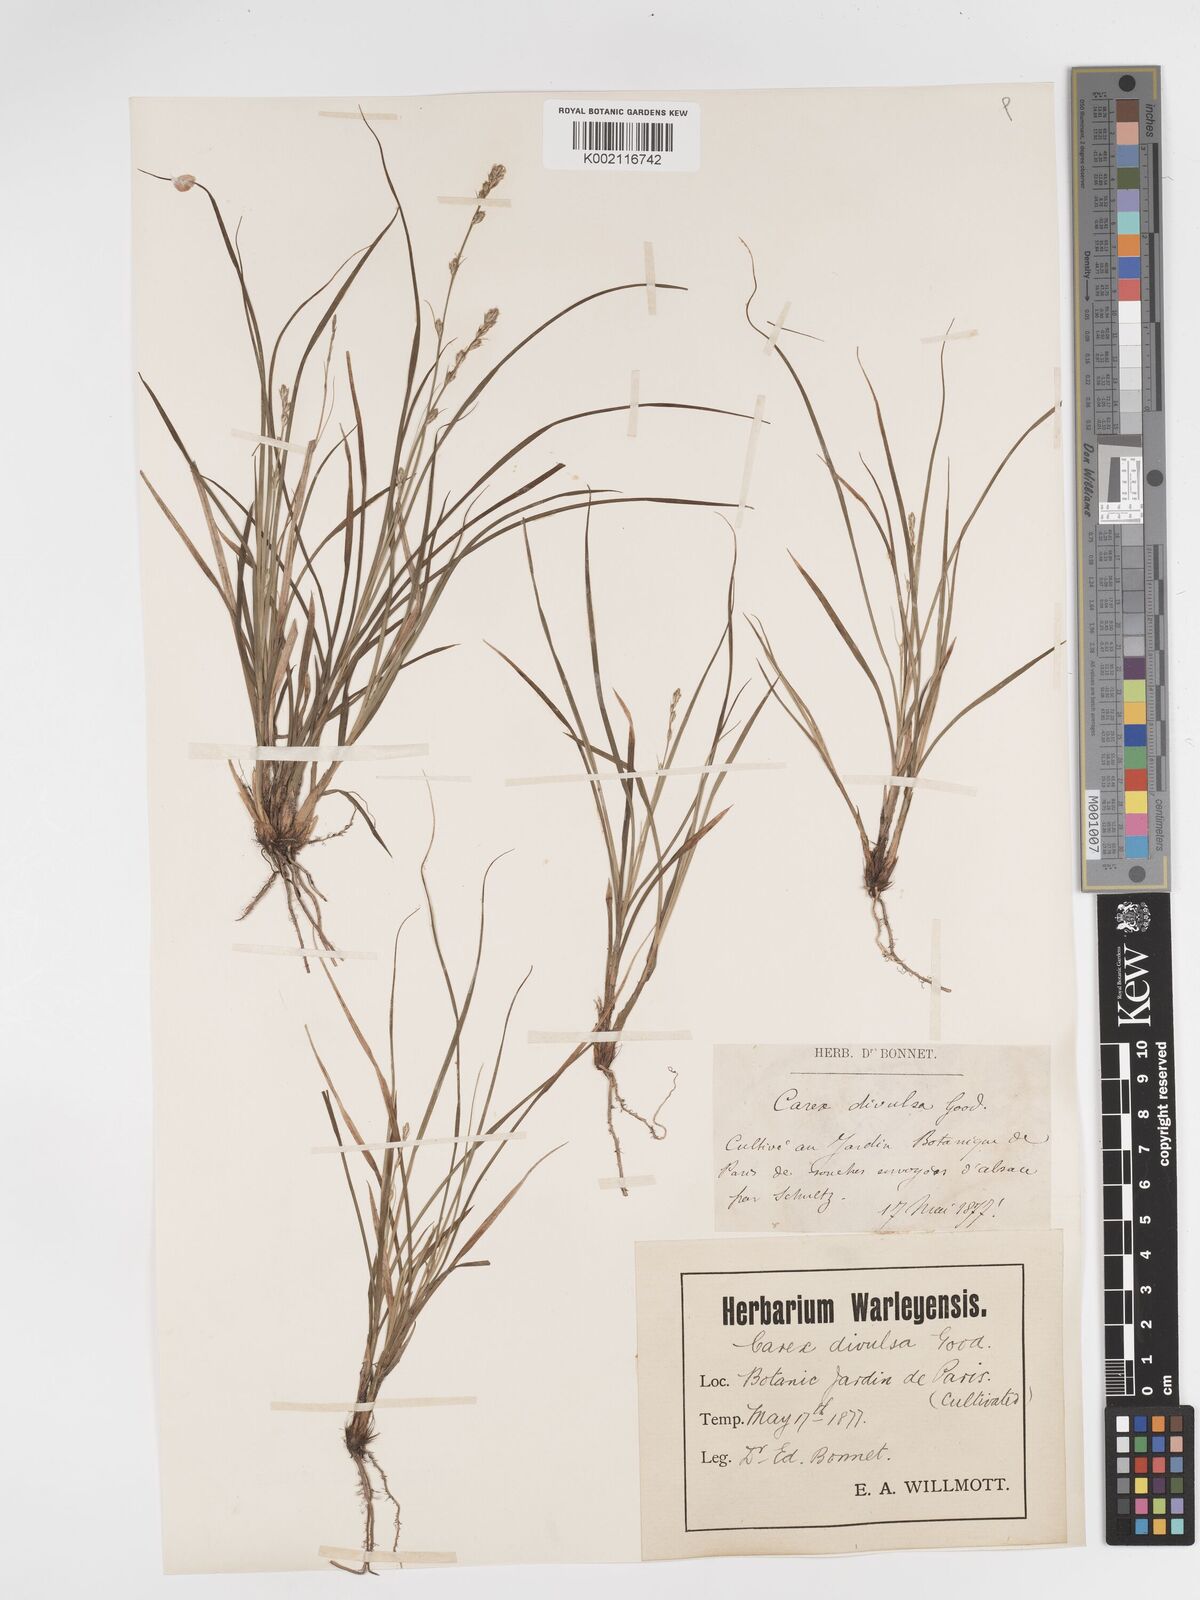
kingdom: Plantae
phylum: Tracheophyta
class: Liliopsida
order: Poales
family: Cyperaceae
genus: Carex
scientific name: Carex divulsa
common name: Grassland sedge
